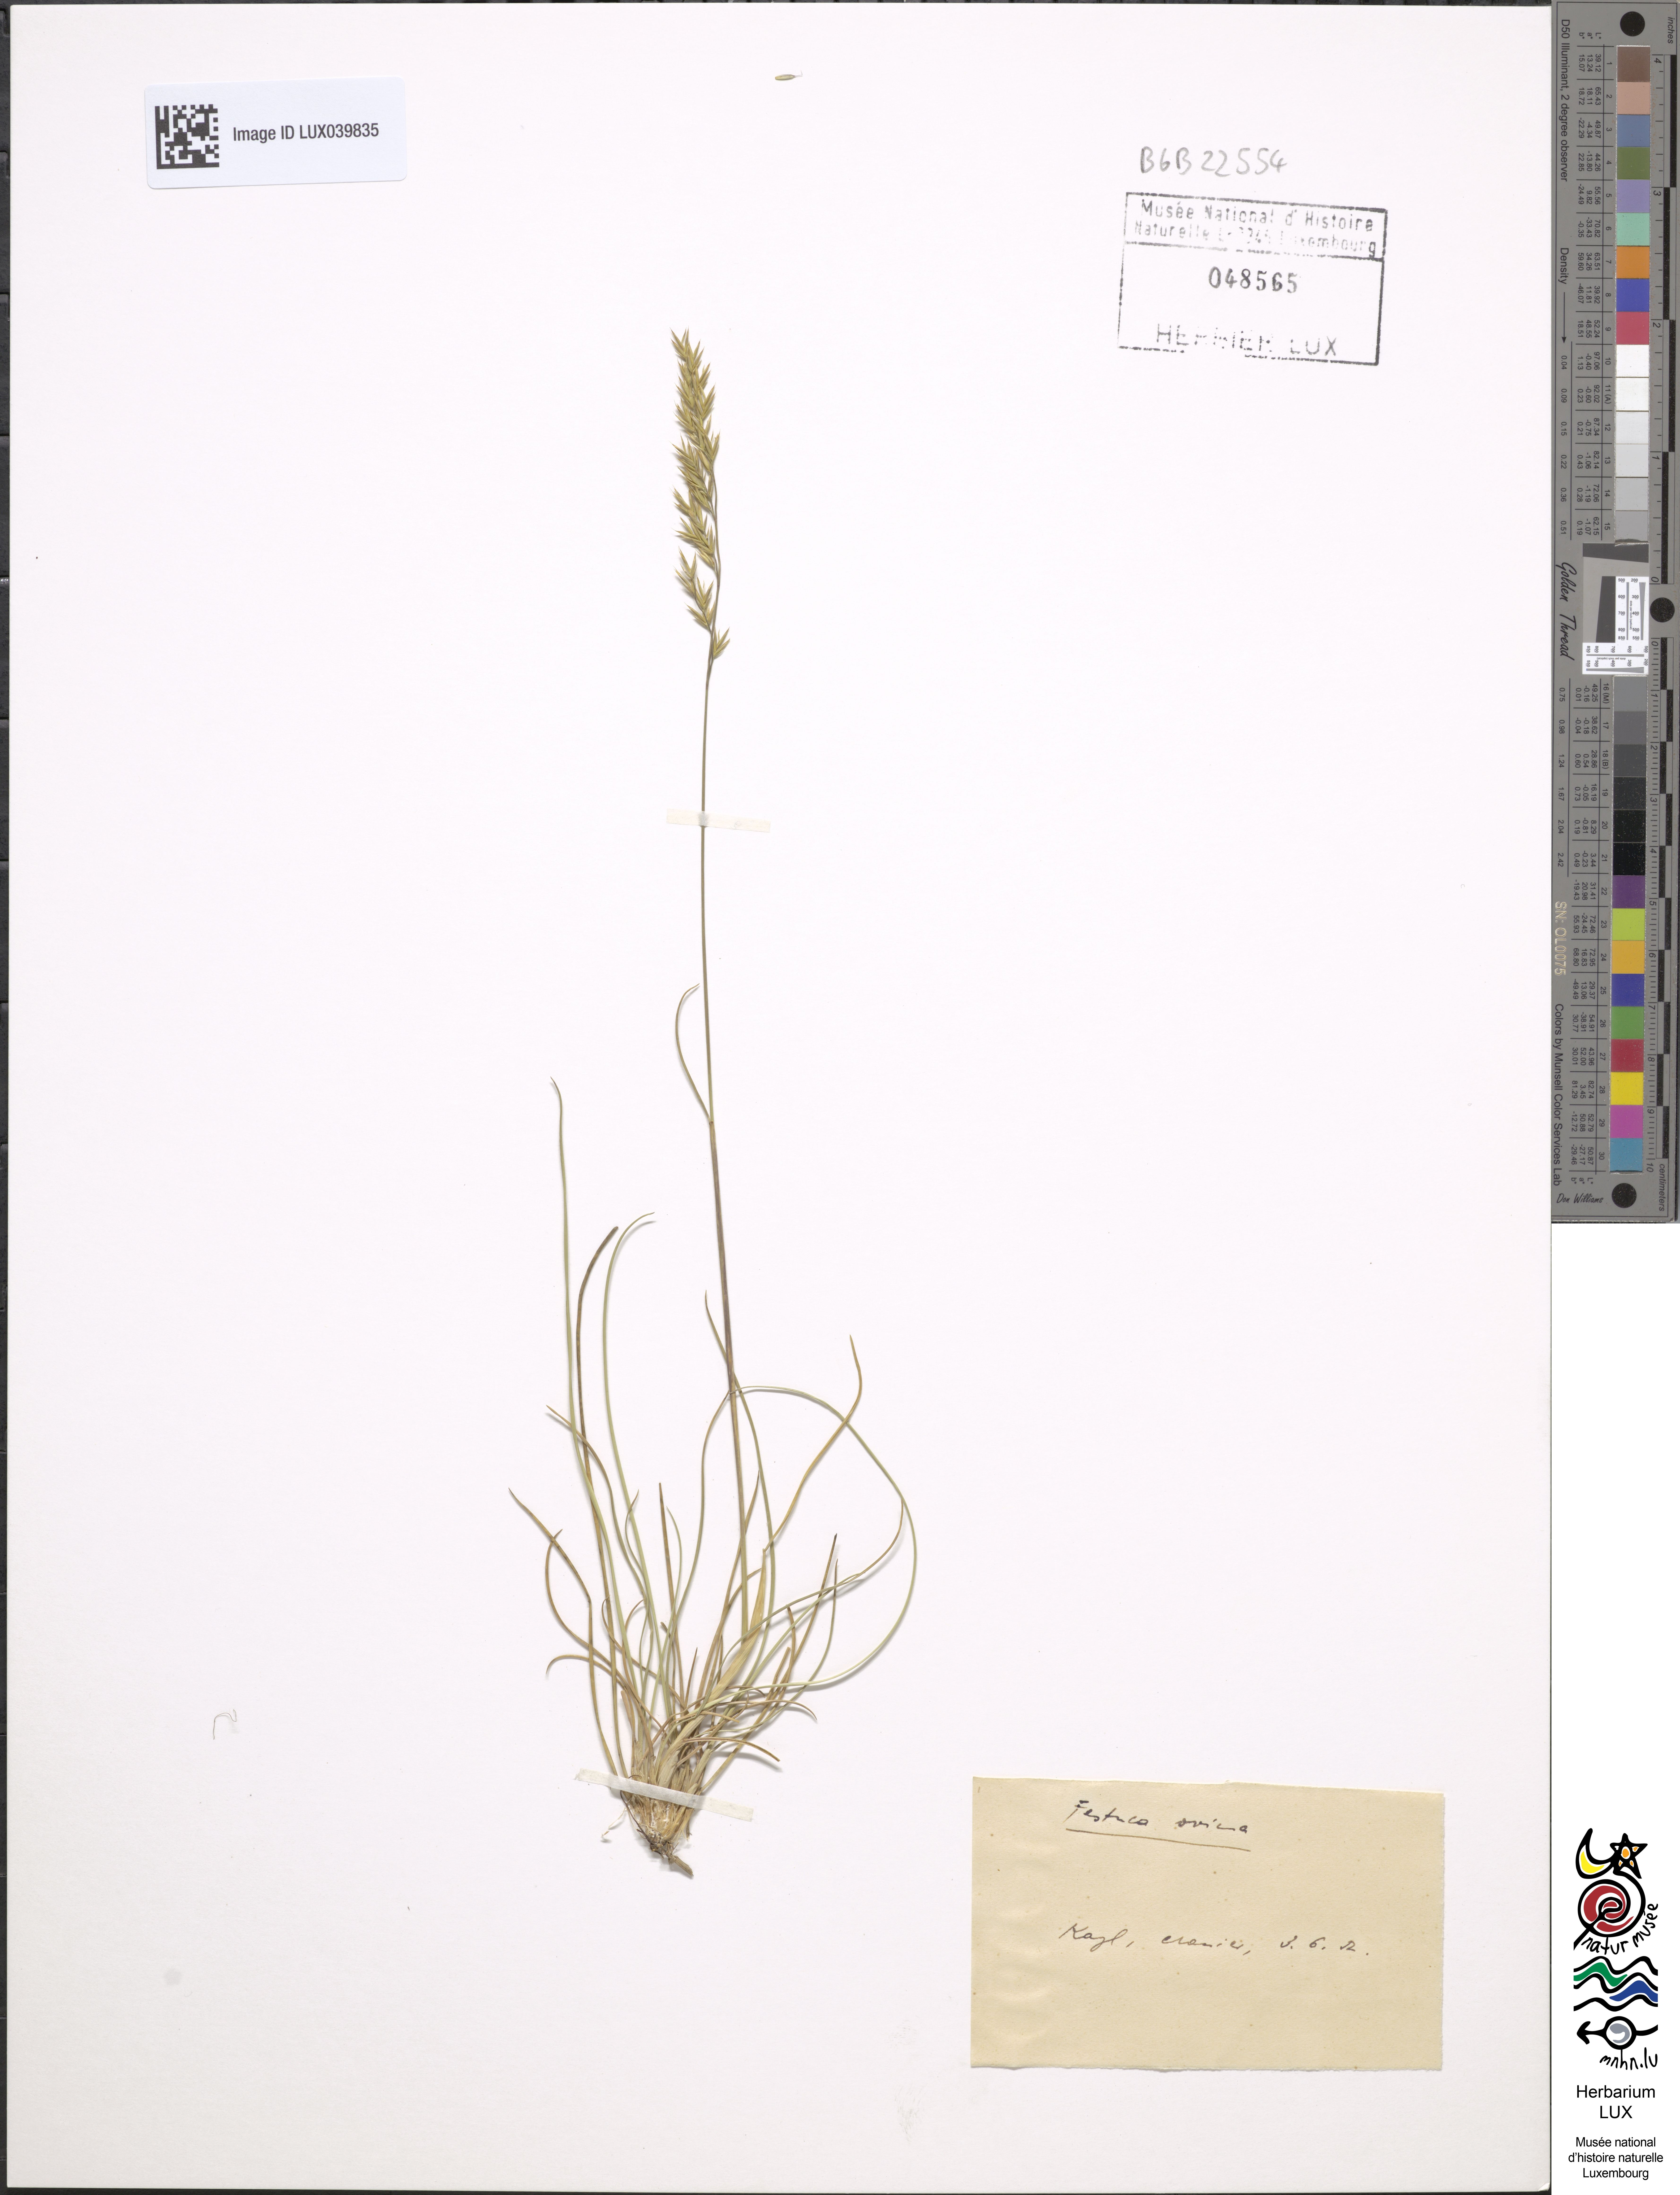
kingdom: Plantae
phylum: Tracheophyta
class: Liliopsida
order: Poales
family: Poaceae
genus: Festuca
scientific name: Festuca ovina
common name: Sheep fescue
